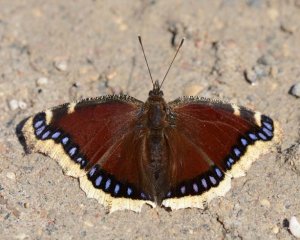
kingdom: Animalia
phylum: Arthropoda
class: Insecta
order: Lepidoptera
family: Nymphalidae
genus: Nymphalis
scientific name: Nymphalis antiopa
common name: Mourning Cloak
